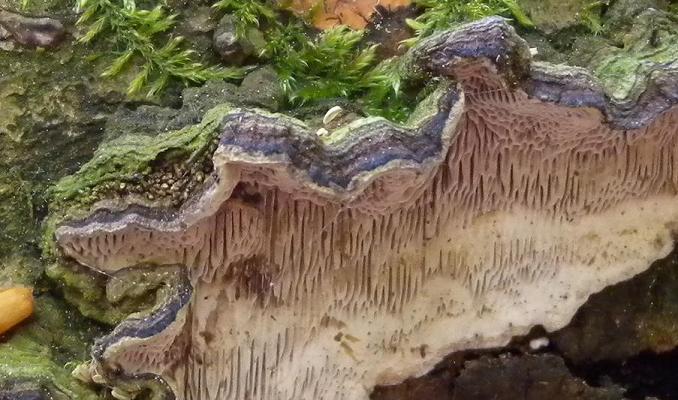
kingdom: Fungi
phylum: Basidiomycota
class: Agaricomycetes
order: Polyporales
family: Polyporaceae
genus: Podofomes
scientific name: Podofomes mollis
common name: blød begporesvamp
